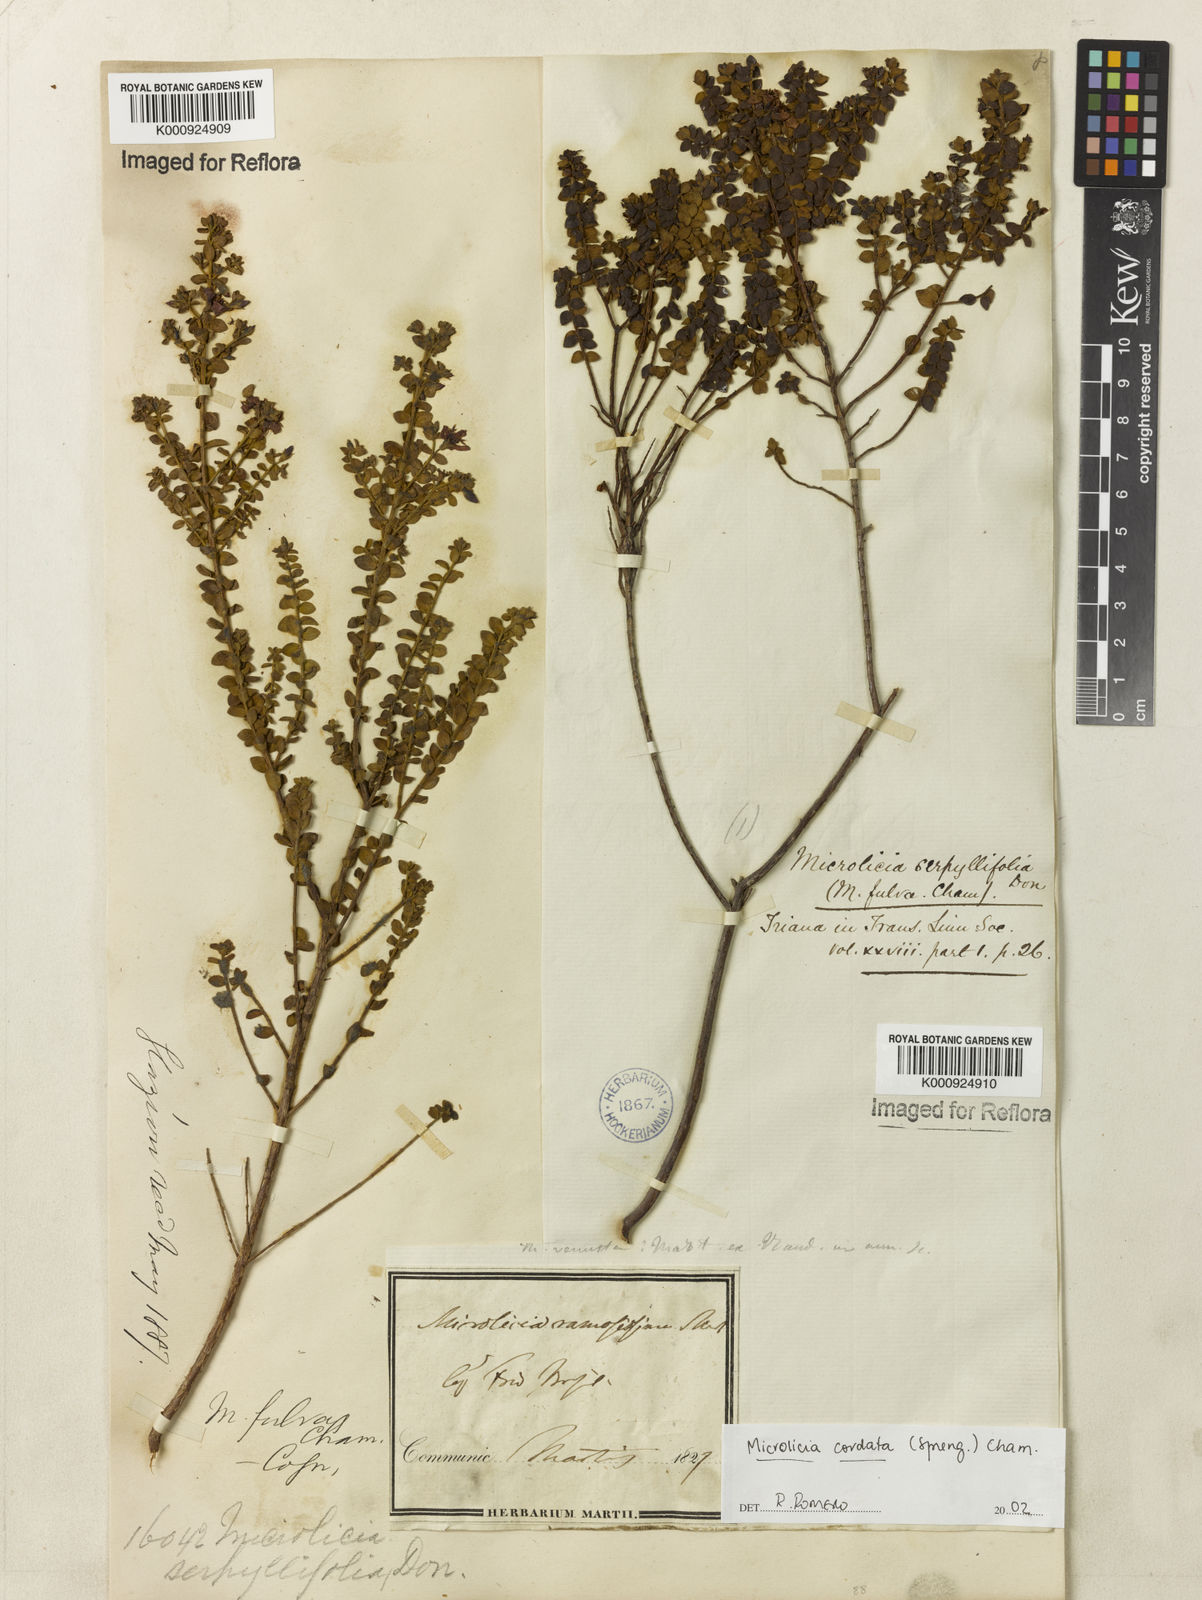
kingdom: Plantae
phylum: Tracheophyta
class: Magnoliopsida
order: Myrtales
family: Melastomataceae
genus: Microlicia
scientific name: Microlicia cordata
